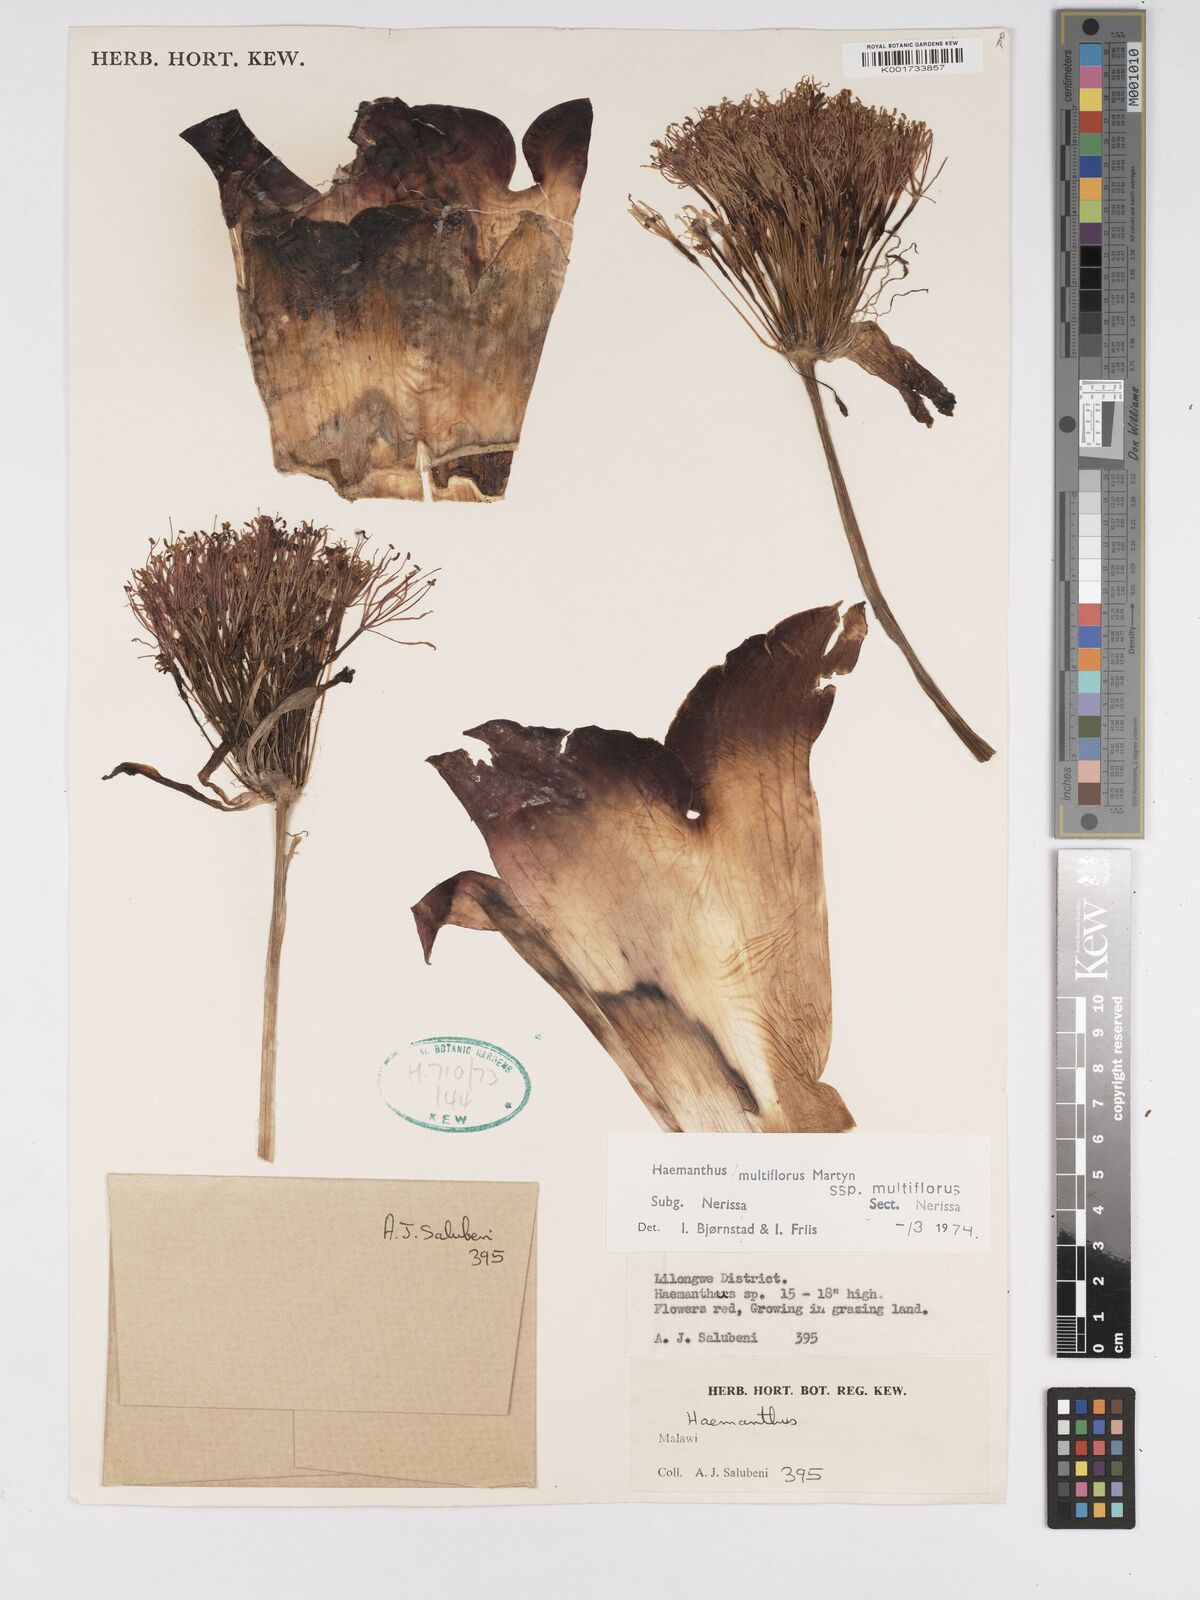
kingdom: Plantae
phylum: Tracheophyta
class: Liliopsida
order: Asparagales
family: Amaryllidaceae
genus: Scadoxus
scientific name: Scadoxus multiflorus
